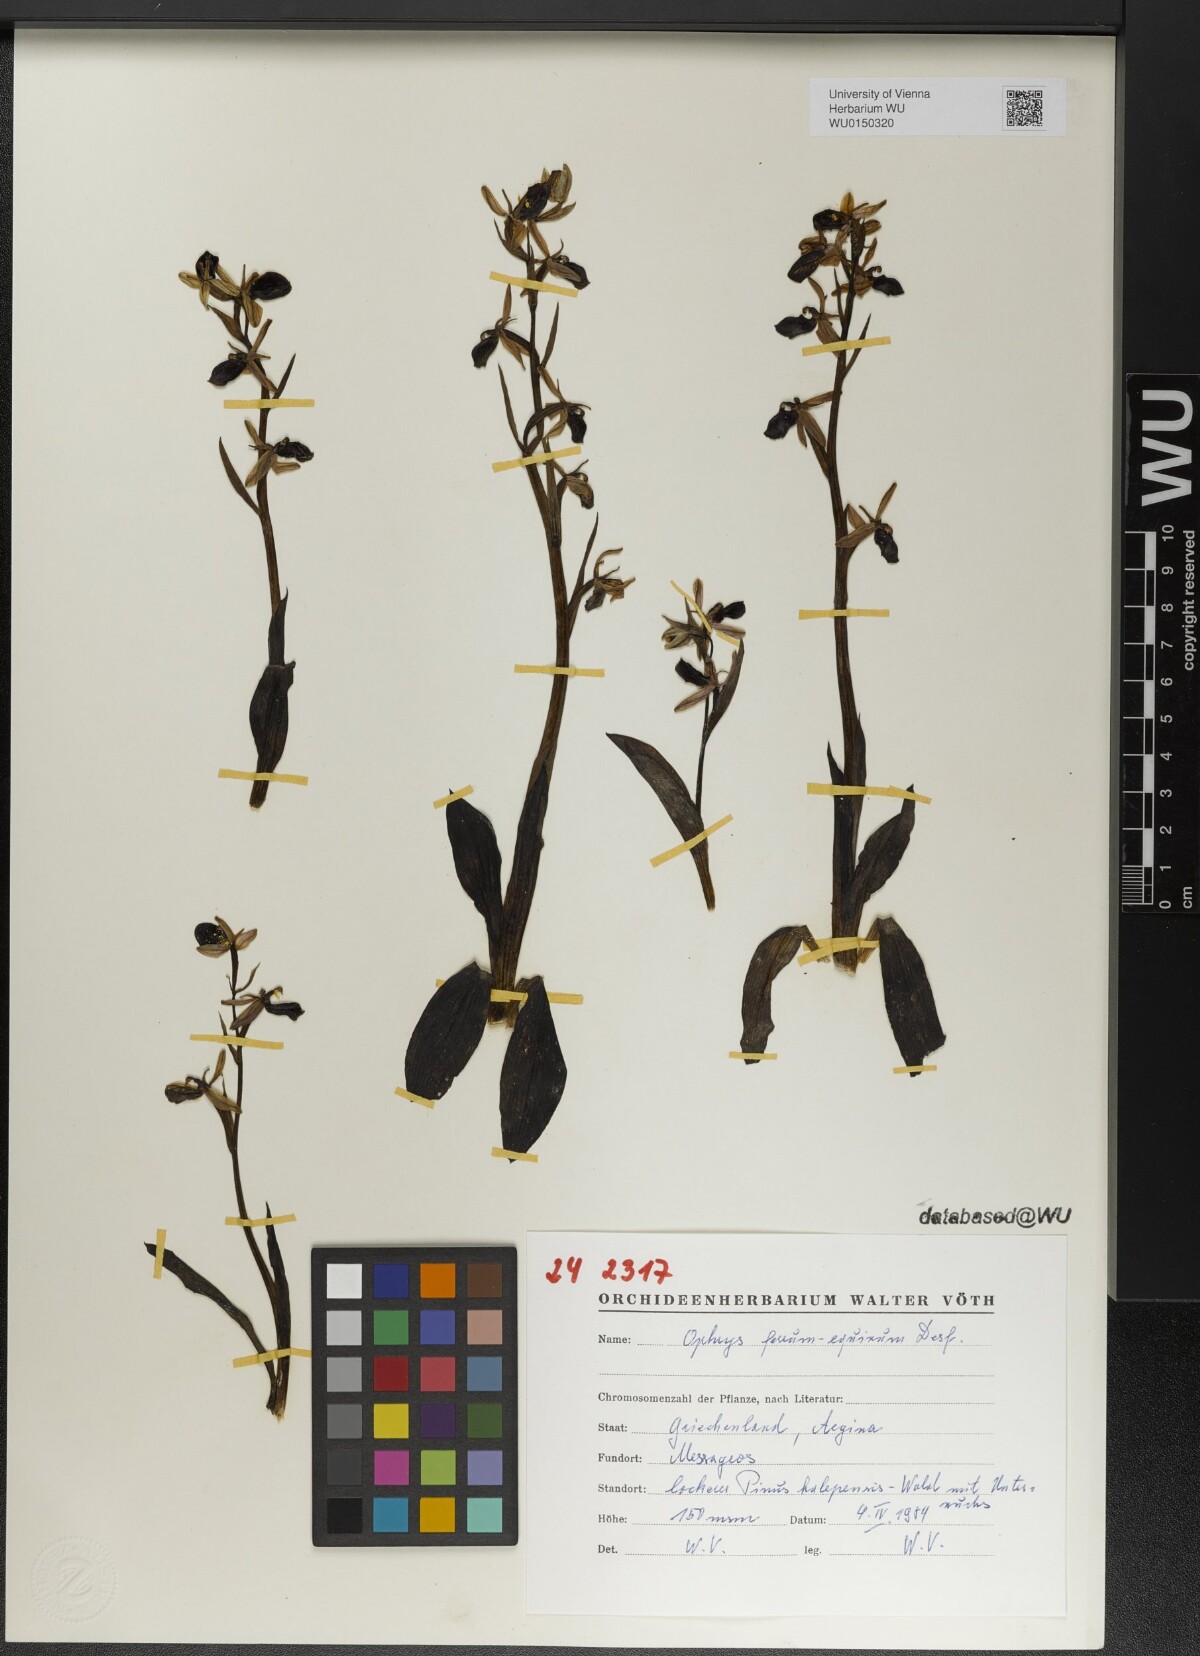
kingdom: Plantae
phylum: Tracheophyta
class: Liliopsida
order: Asparagales
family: Orchidaceae
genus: Ophrys
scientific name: Ophrys ferrum-equinum
